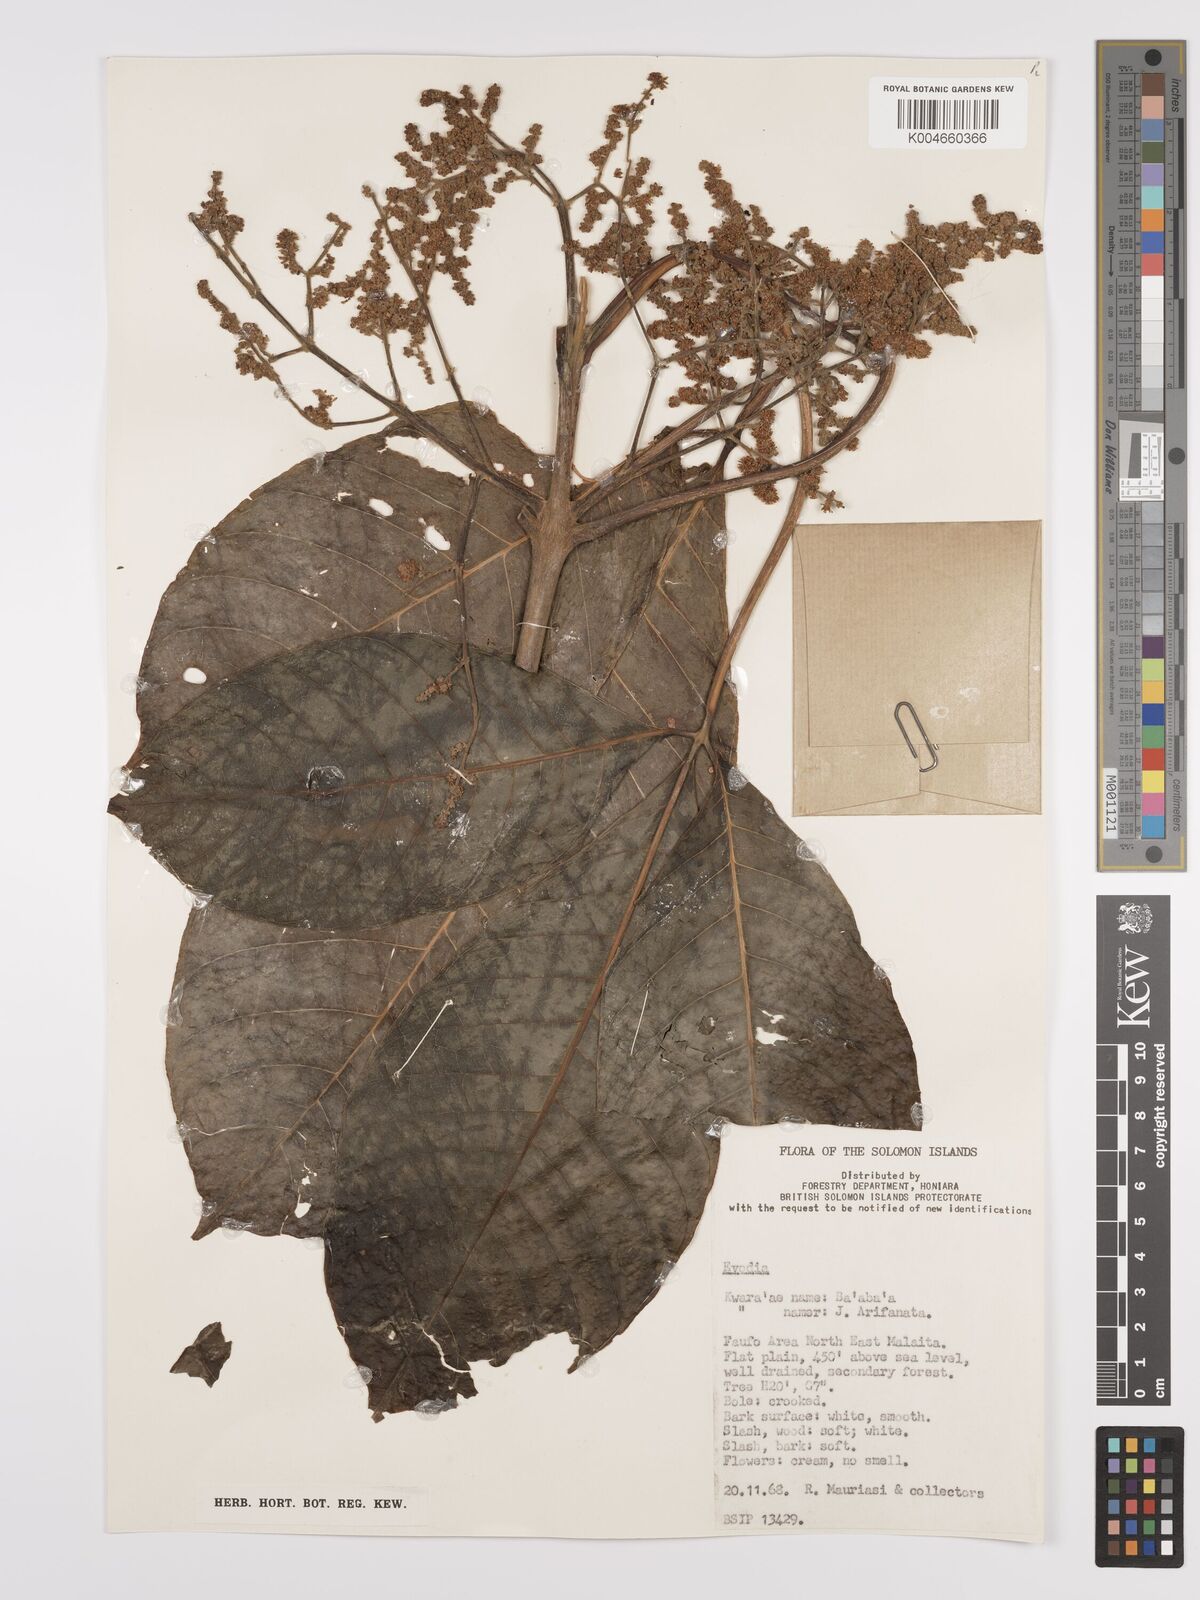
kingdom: Plantae
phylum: Tracheophyta
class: Magnoliopsida
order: Sapindales
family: Rutaceae
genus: Euodia
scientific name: Euodia
